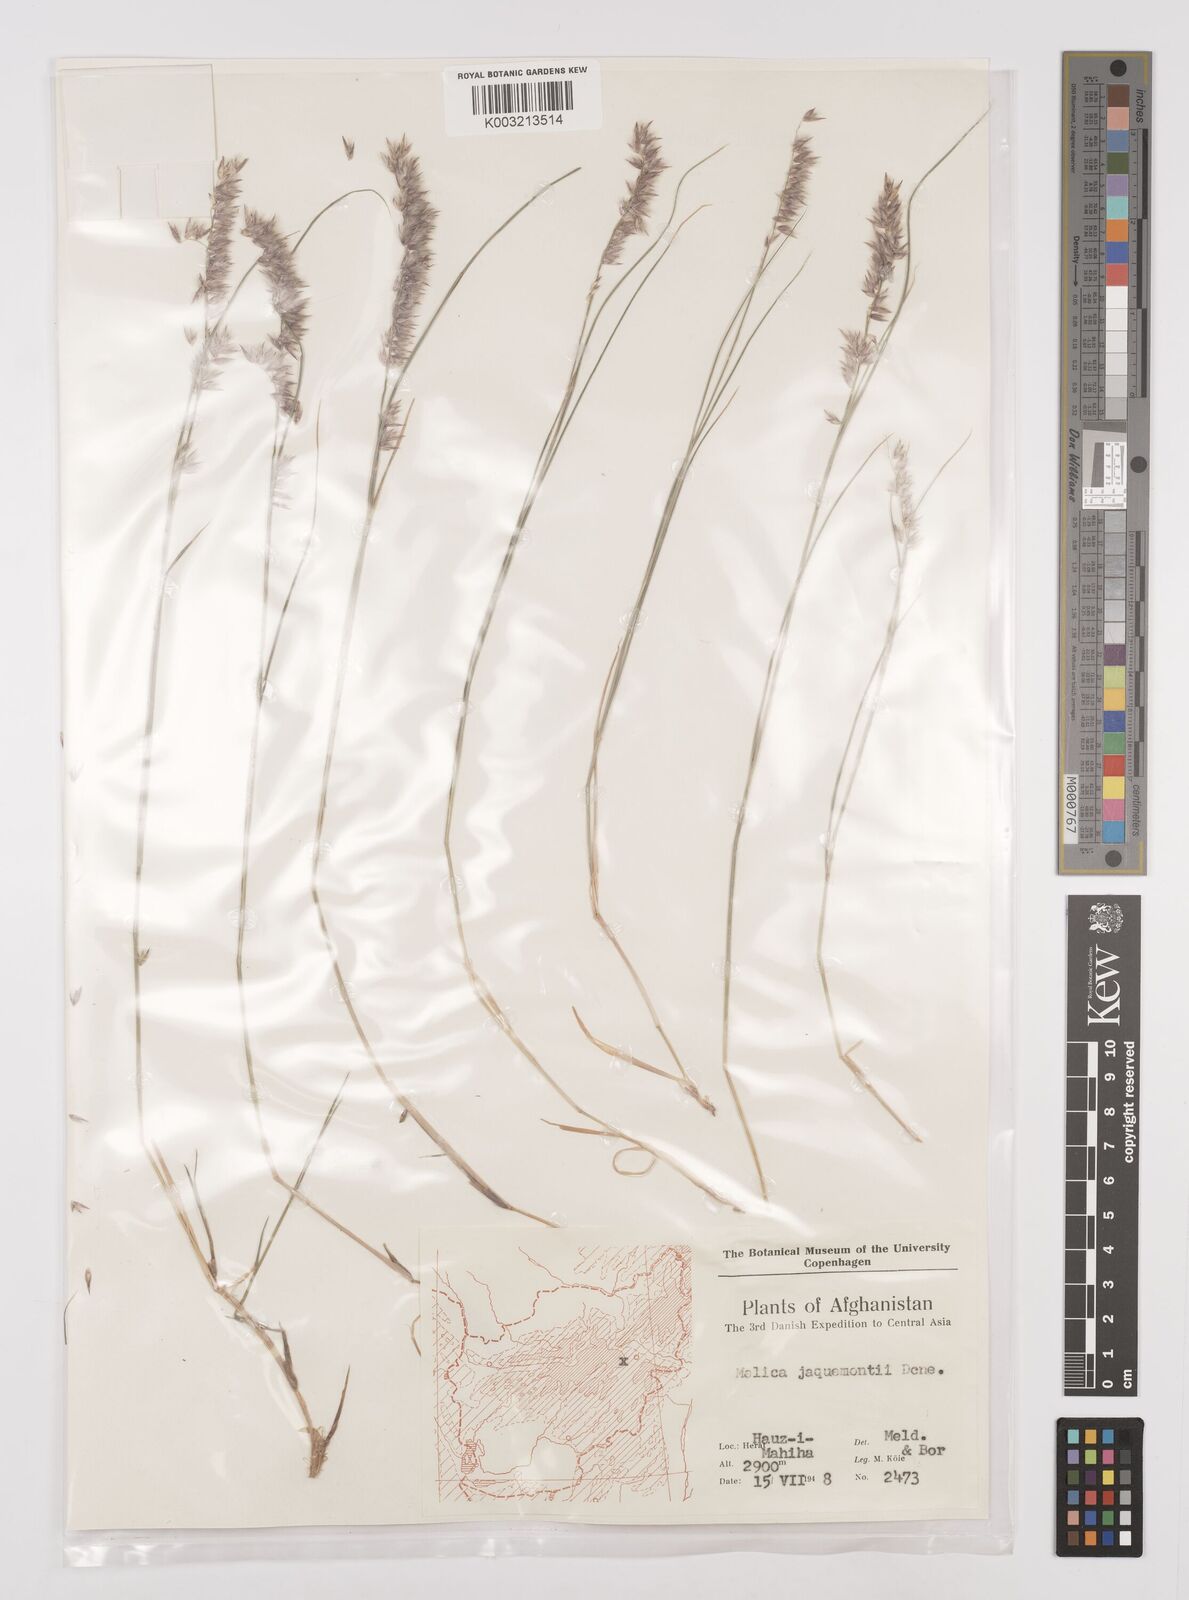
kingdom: Plantae
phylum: Tracheophyta
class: Liliopsida
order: Poales
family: Poaceae
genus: Melica
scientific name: Melica persica
